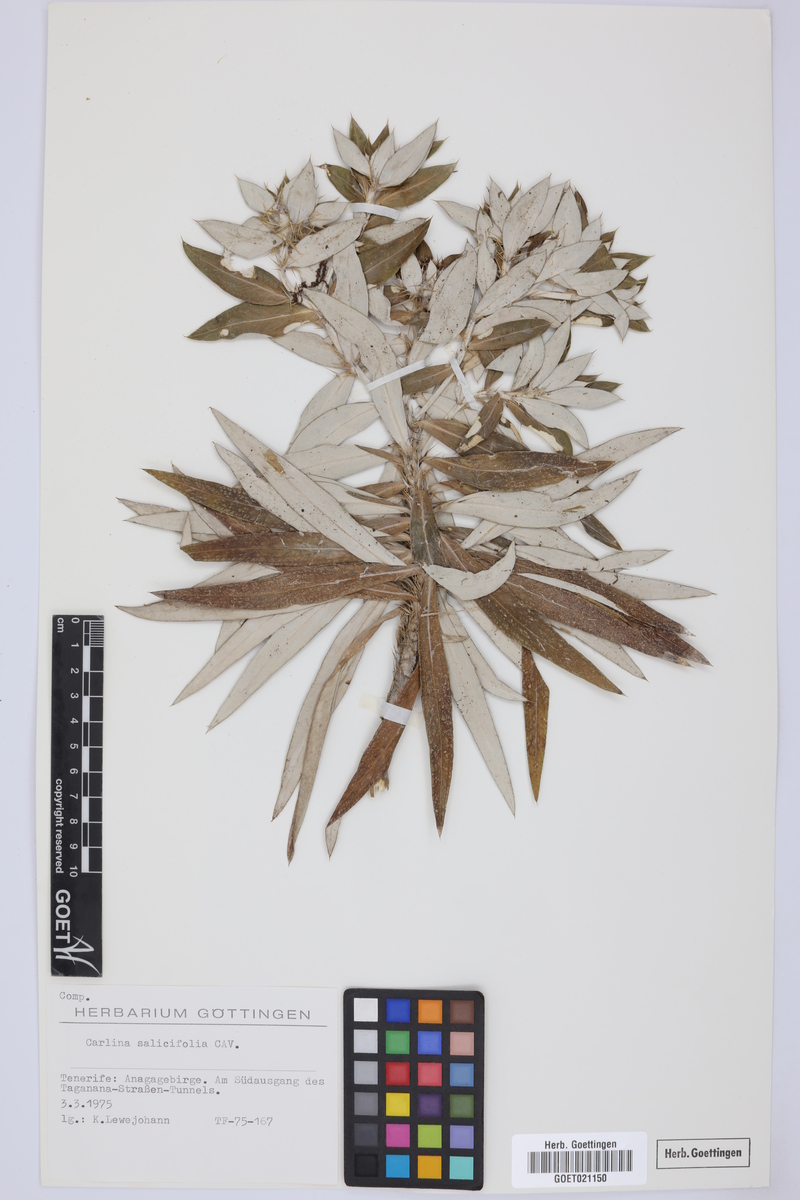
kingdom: Plantae
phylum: Tracheophyta
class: Magnoliopsida
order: Asterales
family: Asteraceae
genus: Carlina
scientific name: Carlina salicifolia
